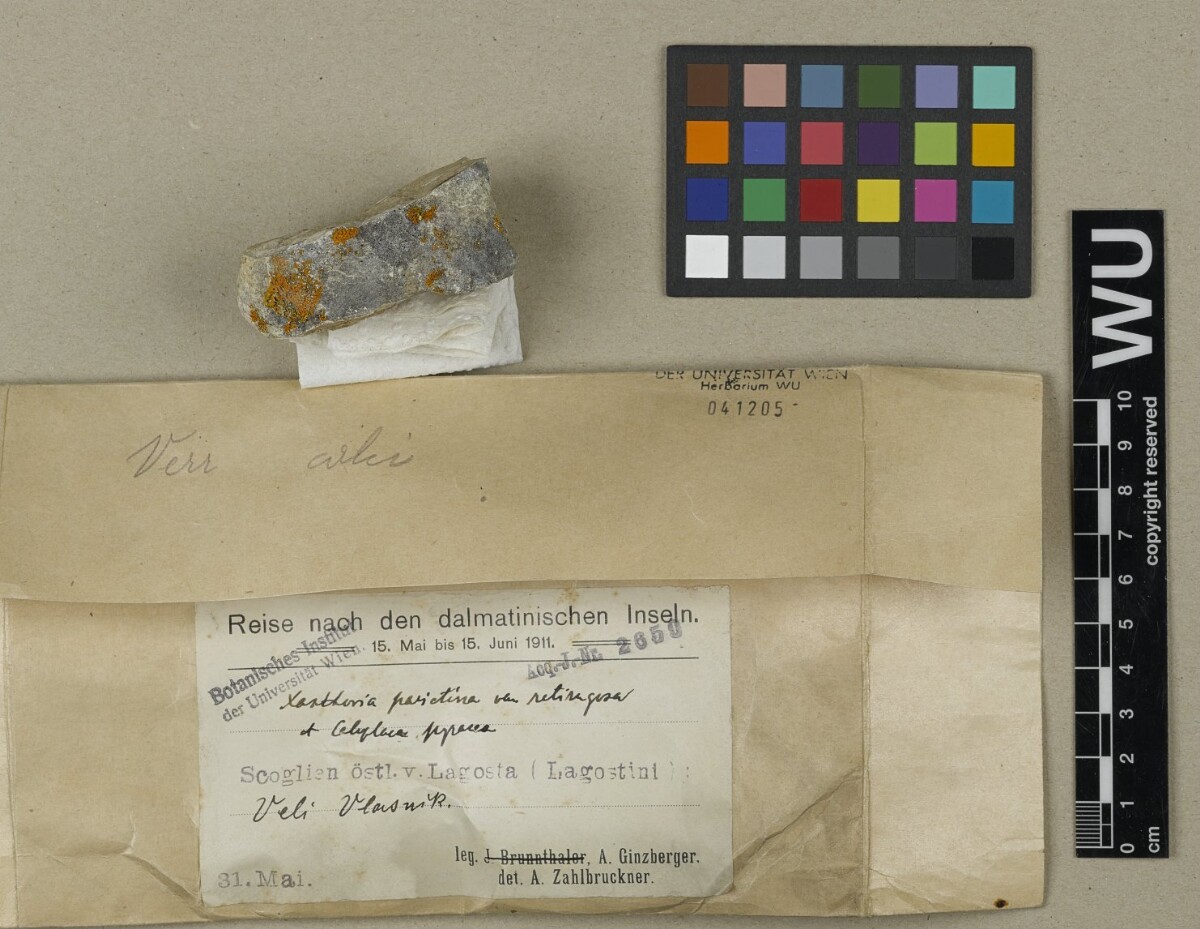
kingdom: Fungi
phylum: Ascomycota
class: Lecanoromycetes
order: Teloschistales
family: Teloschistaceae
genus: Xanthoria
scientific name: Xanthoria parietina
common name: Common orange lichen
